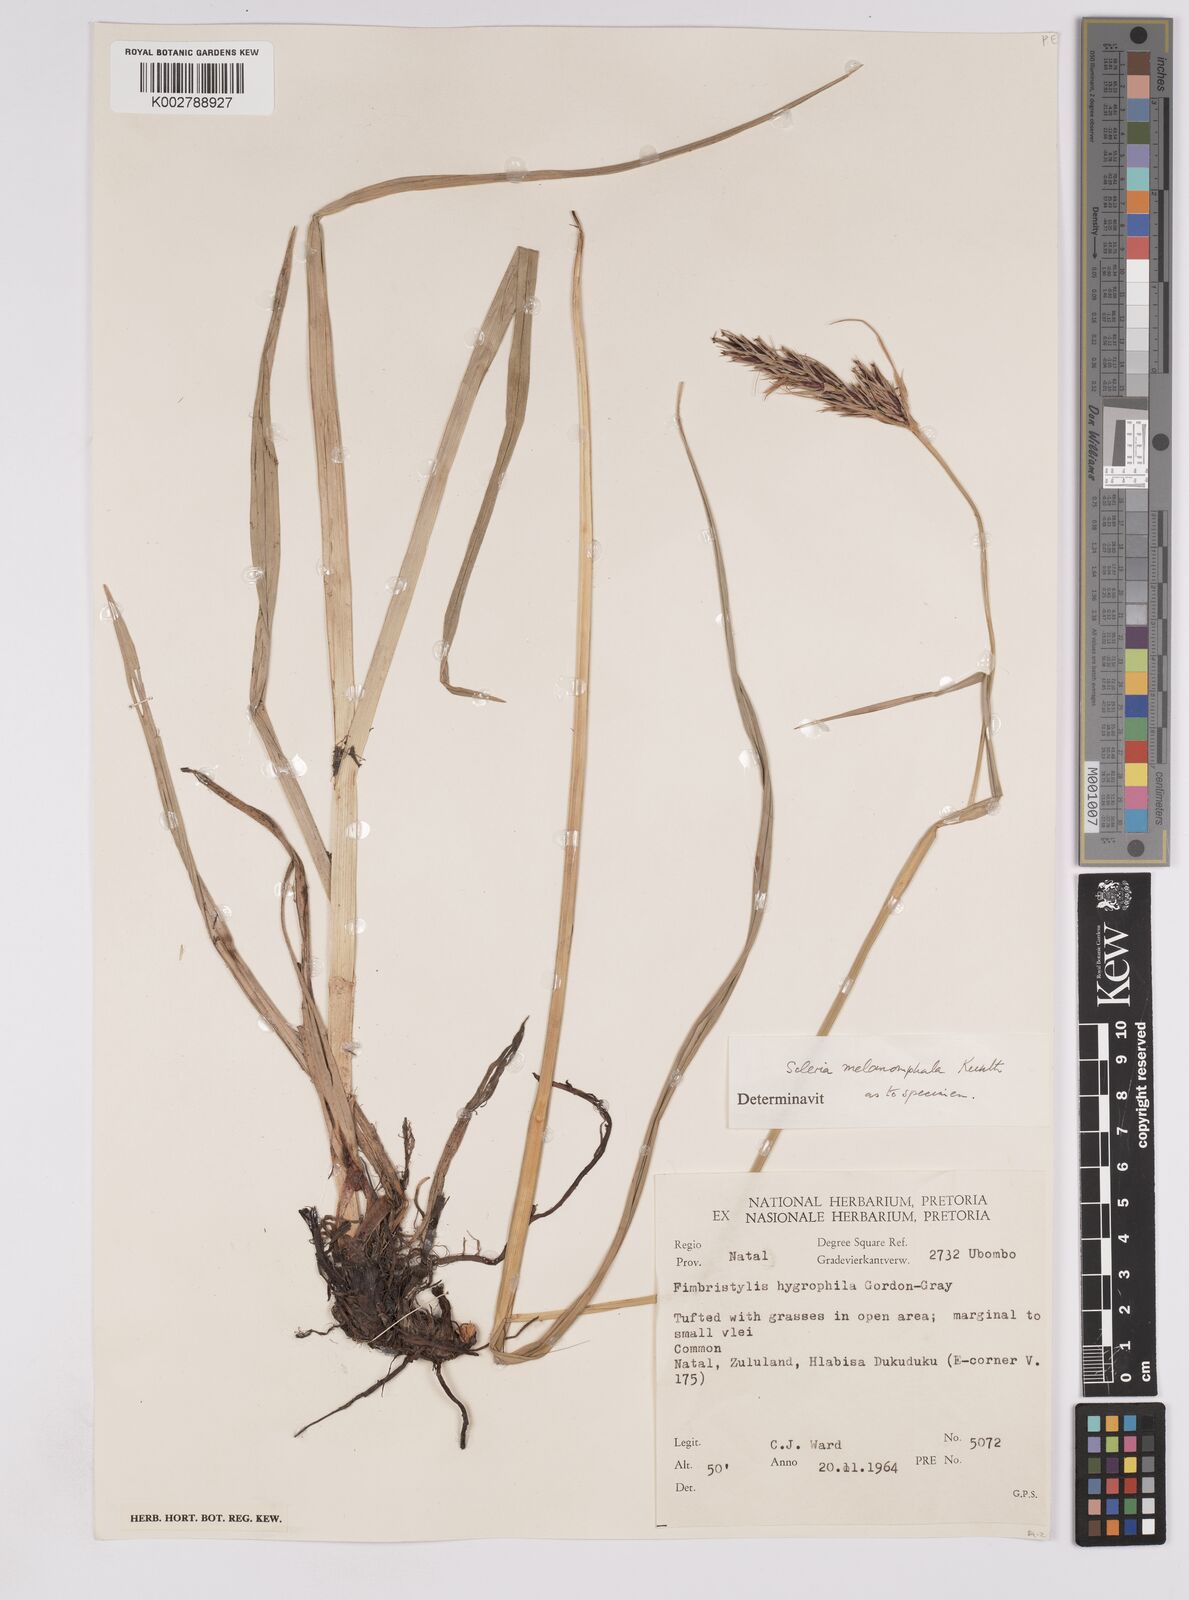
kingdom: Plantae
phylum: Tracheophyta
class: Liliopsida
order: Poales
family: Cyperaceae
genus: Scleria
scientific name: Scleria melanomphala
